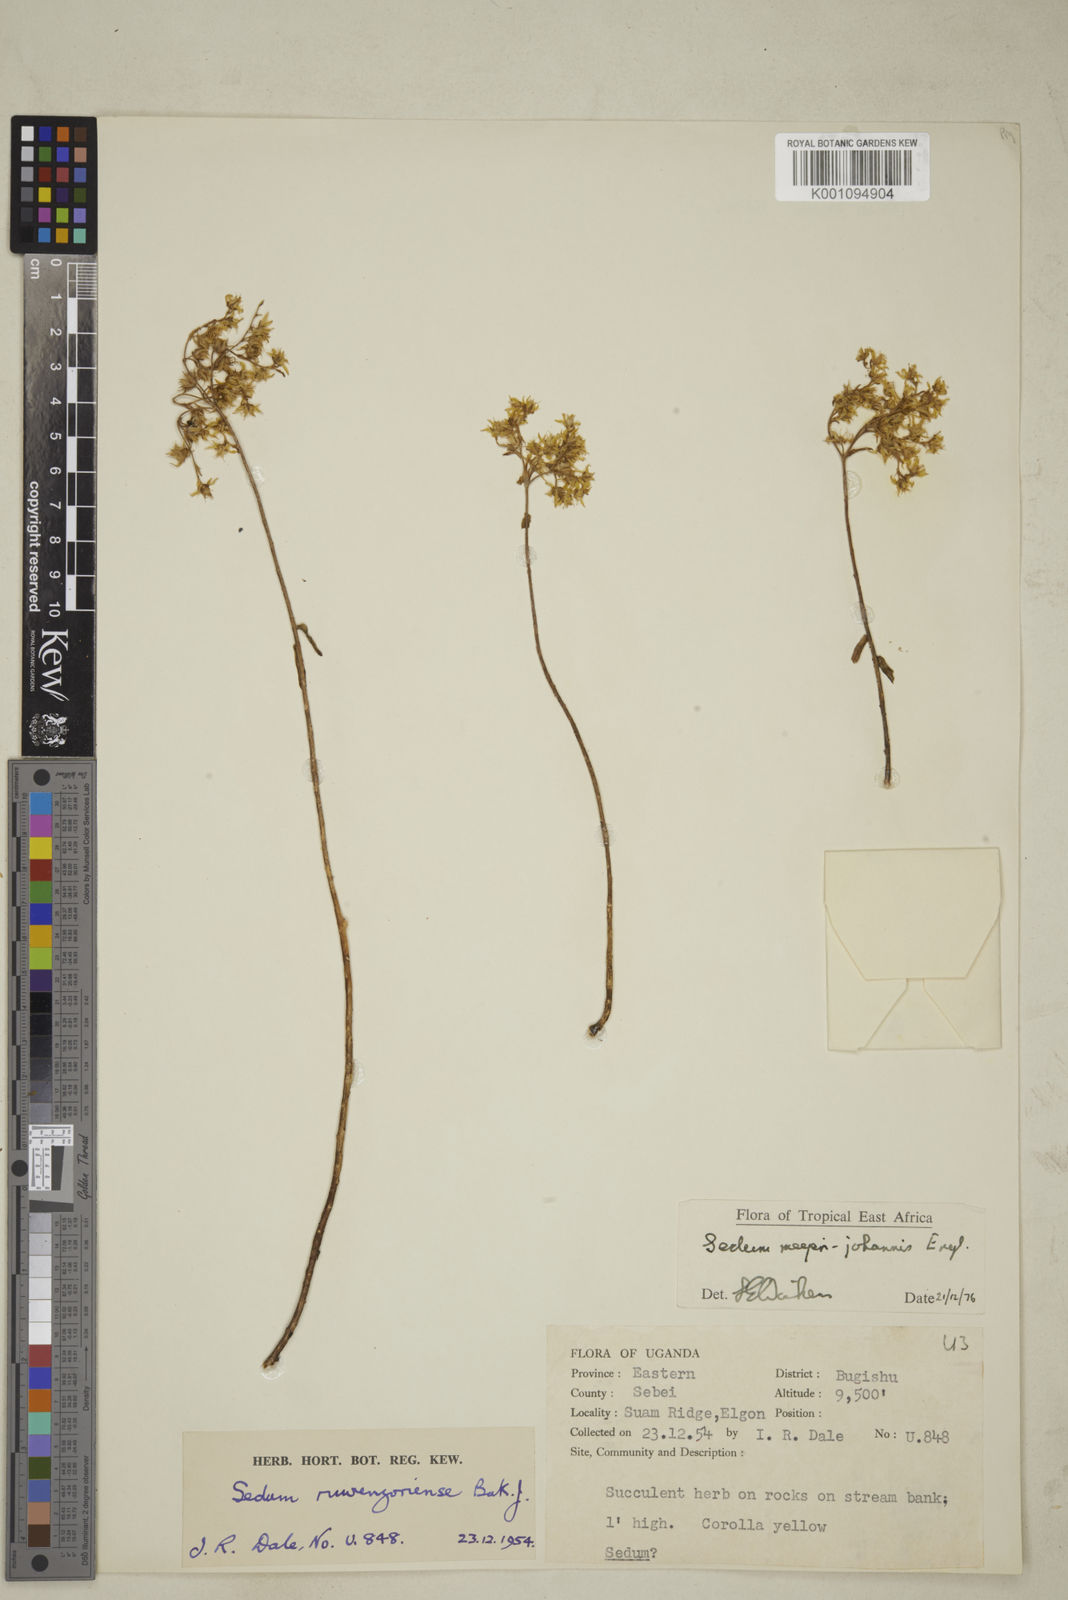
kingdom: Plantae
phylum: Tracheophyta
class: Magnoliopsida
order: Saxifragales
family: Crassulaceae
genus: Sedum
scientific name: Sedum meyeri-johannis
